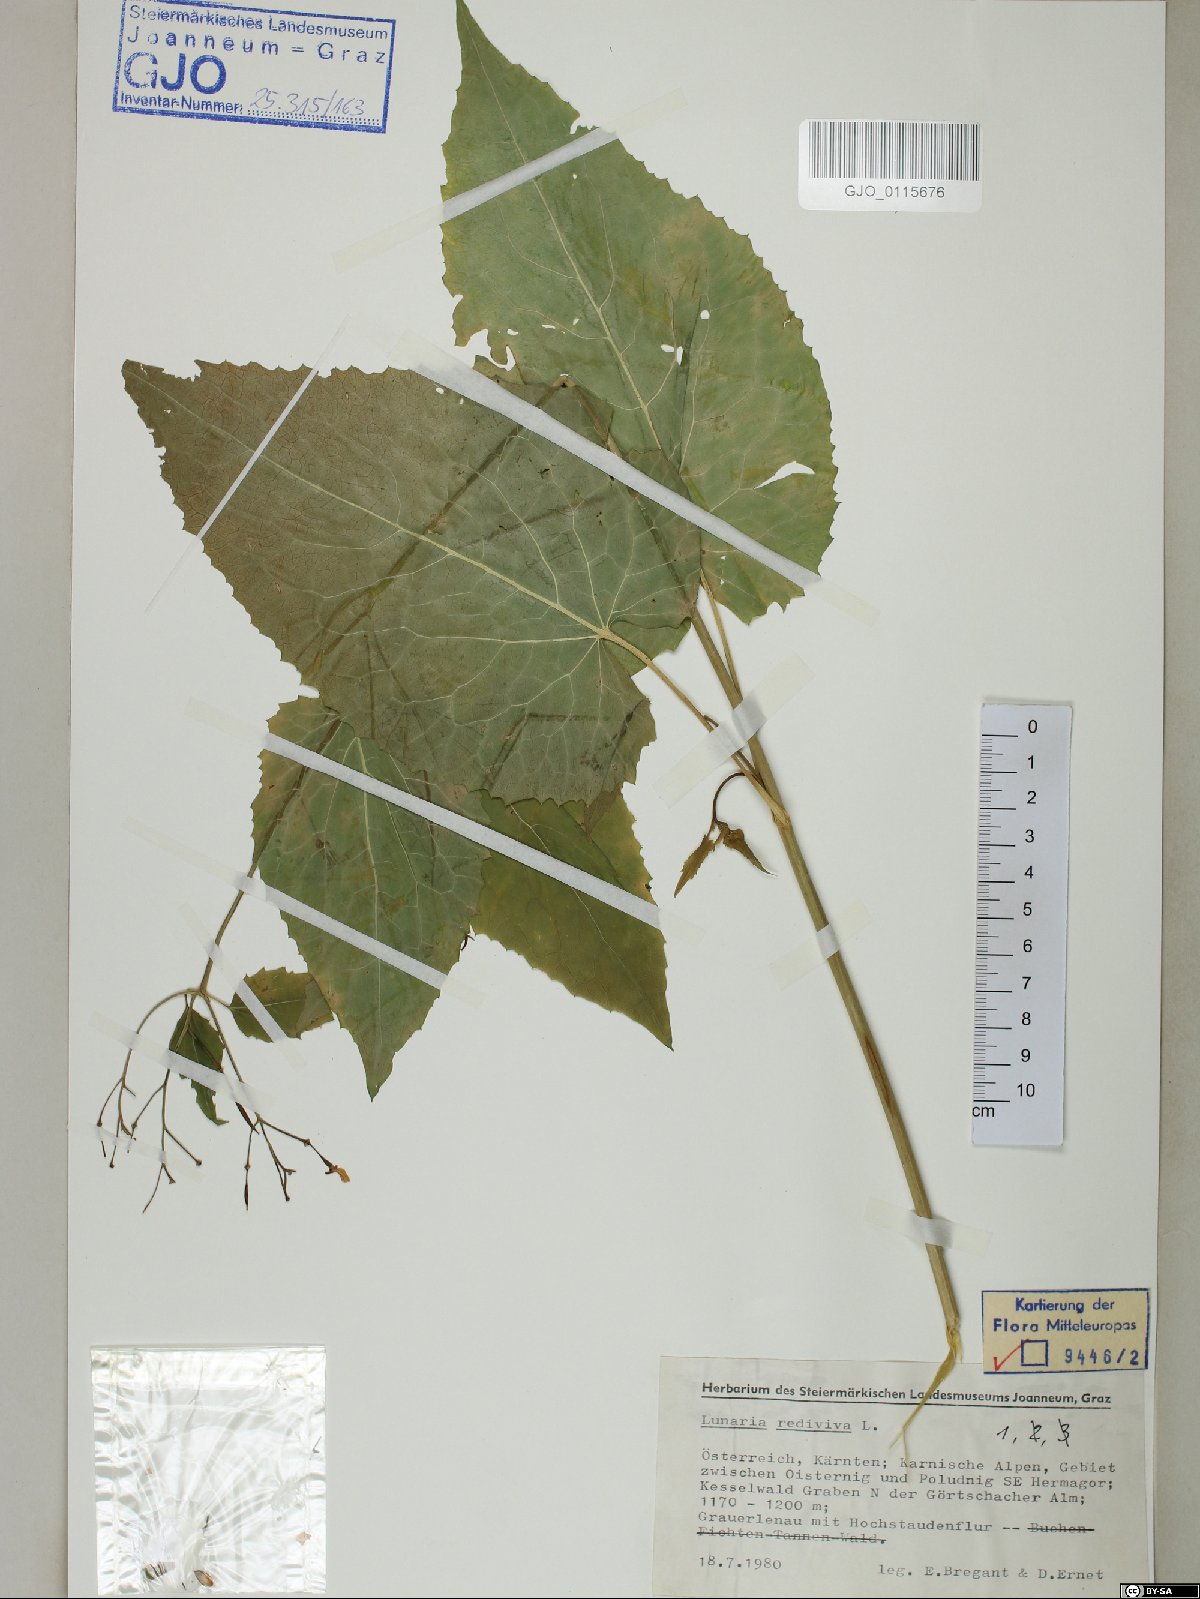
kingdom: Plantae
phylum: Tracheophyta
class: Magnoliopsida
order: Brassicales
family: Brassicaceae
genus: Lunaria
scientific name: Lunaria rediviva
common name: Perennial honesty
